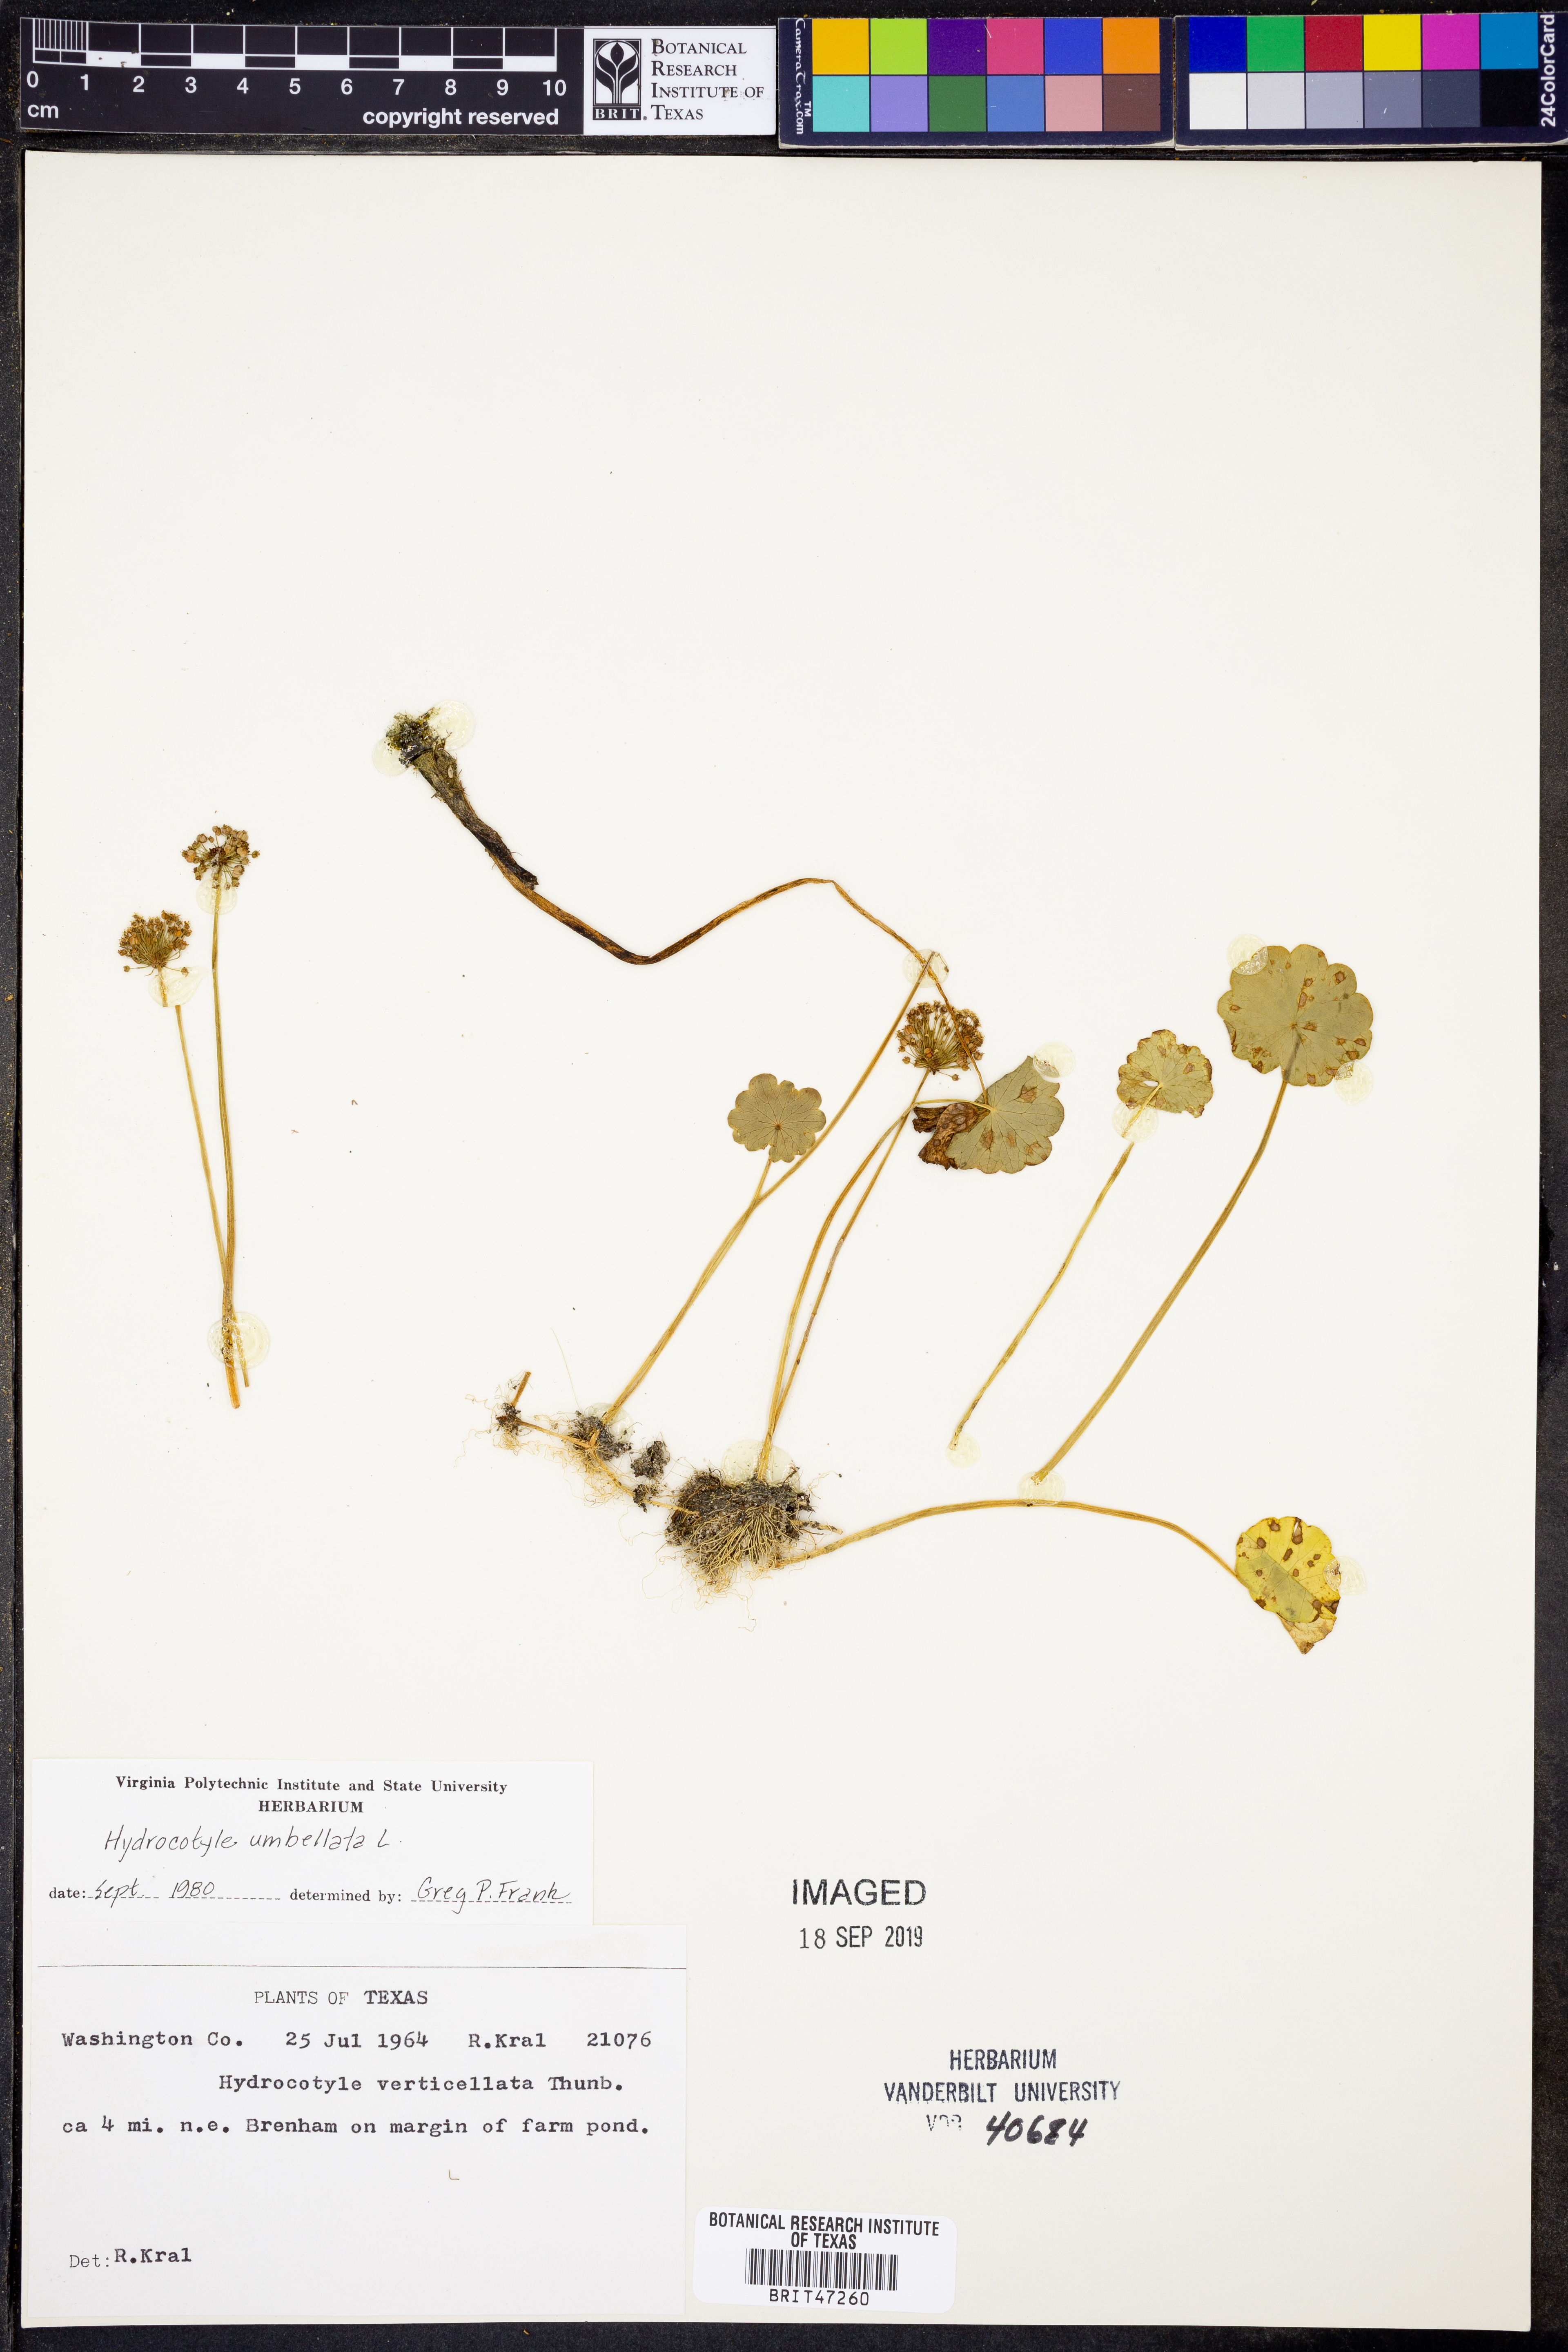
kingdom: Plantae
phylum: Tracheophyta
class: Magnoliopsida
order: Apiales
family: Araliaceae
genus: Hydrocotyle
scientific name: Hydrocotyle umbellata
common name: Water pennywort
